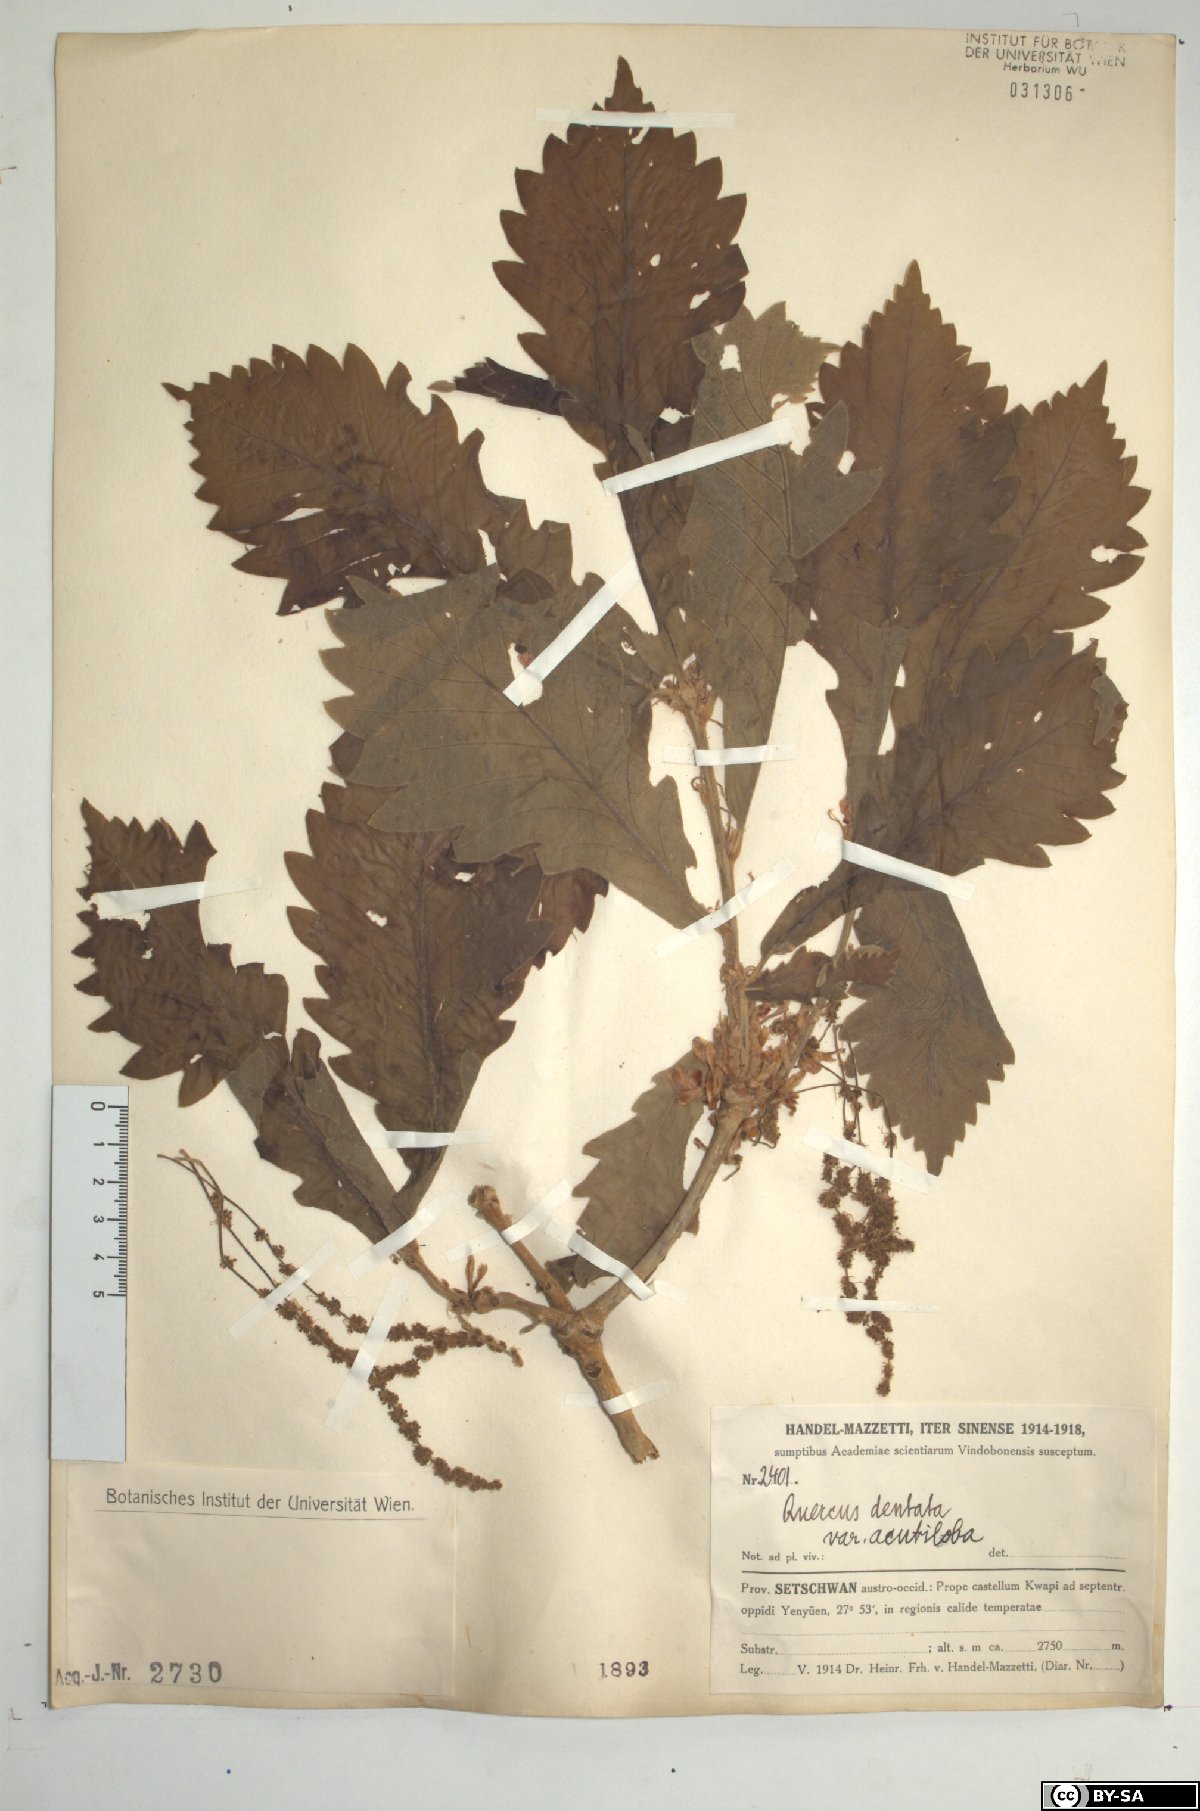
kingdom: Plantae
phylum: Tracheophyta
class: Magnoliopsida
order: Fagales
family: Fagaceae
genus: Quercus
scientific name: Quercus dentata
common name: Daimyo oak
